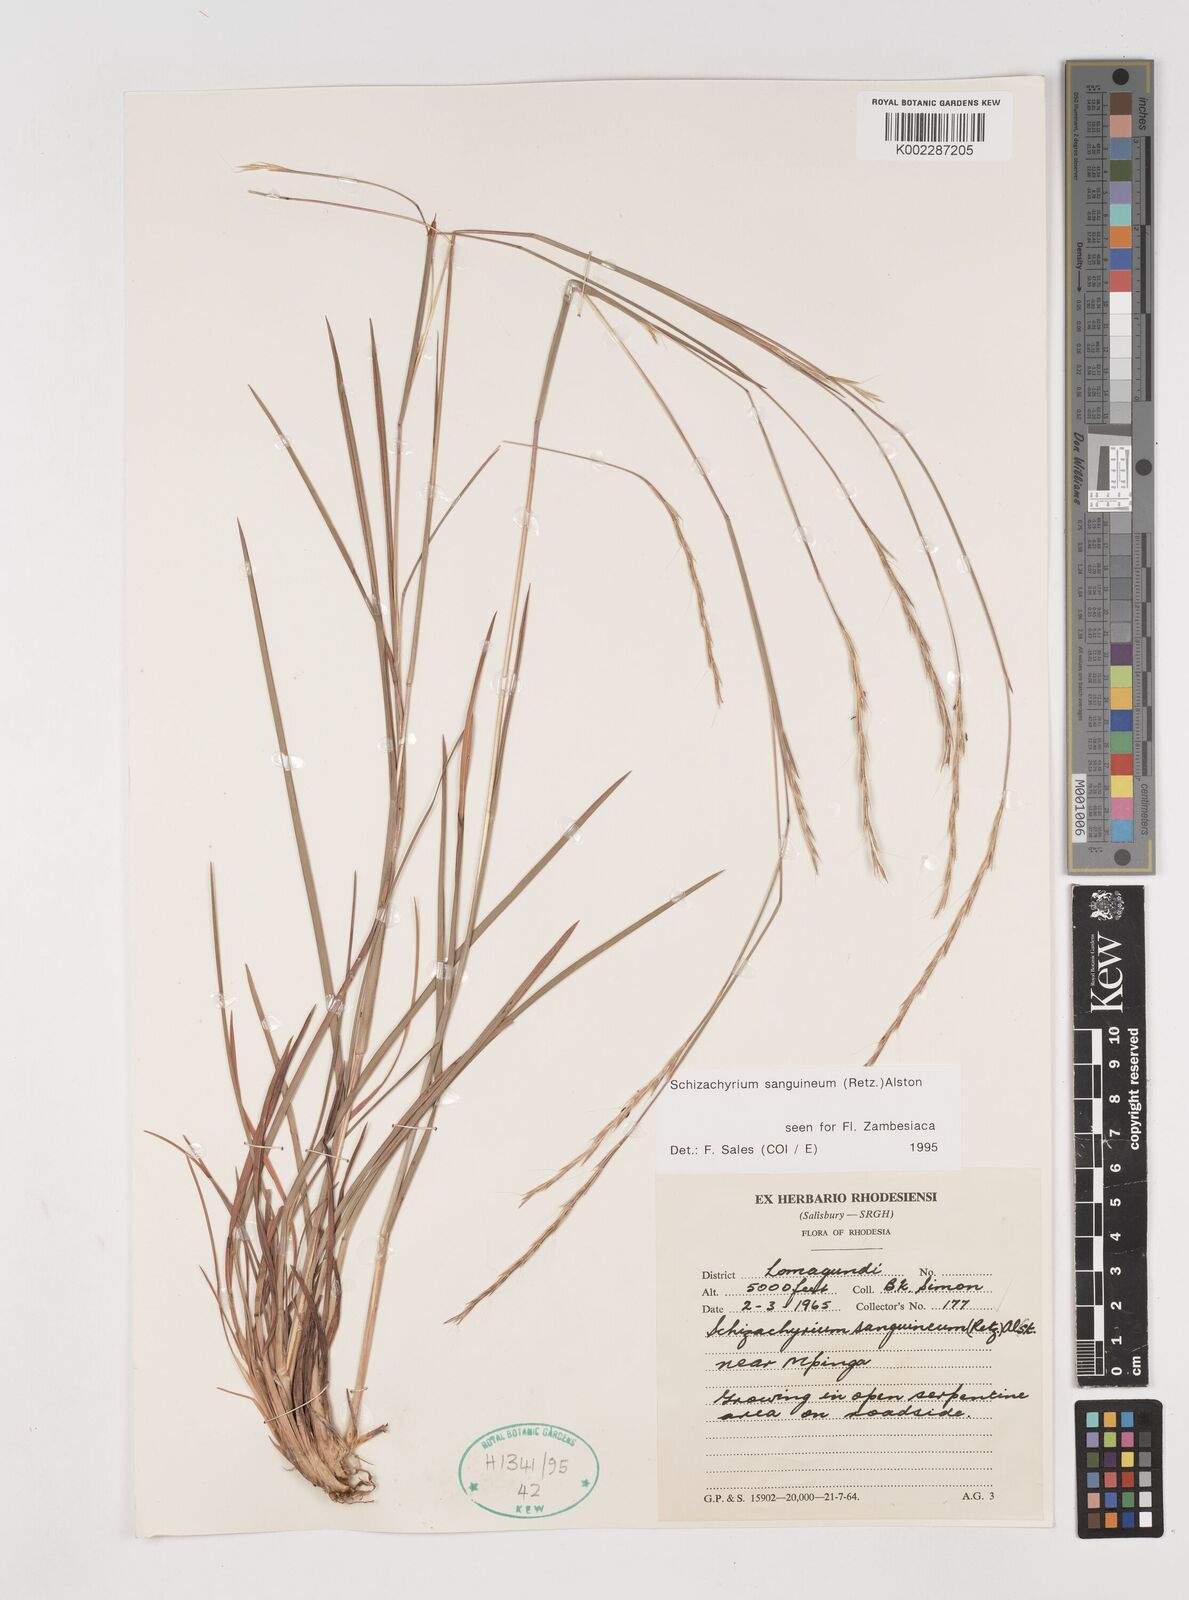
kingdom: Plantae
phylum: Tracheophyta
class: Liliopsida
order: Poales
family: Poaceae
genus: Schizachyrium
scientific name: Schizachyrium sanguineum
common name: Crimson bluestem
